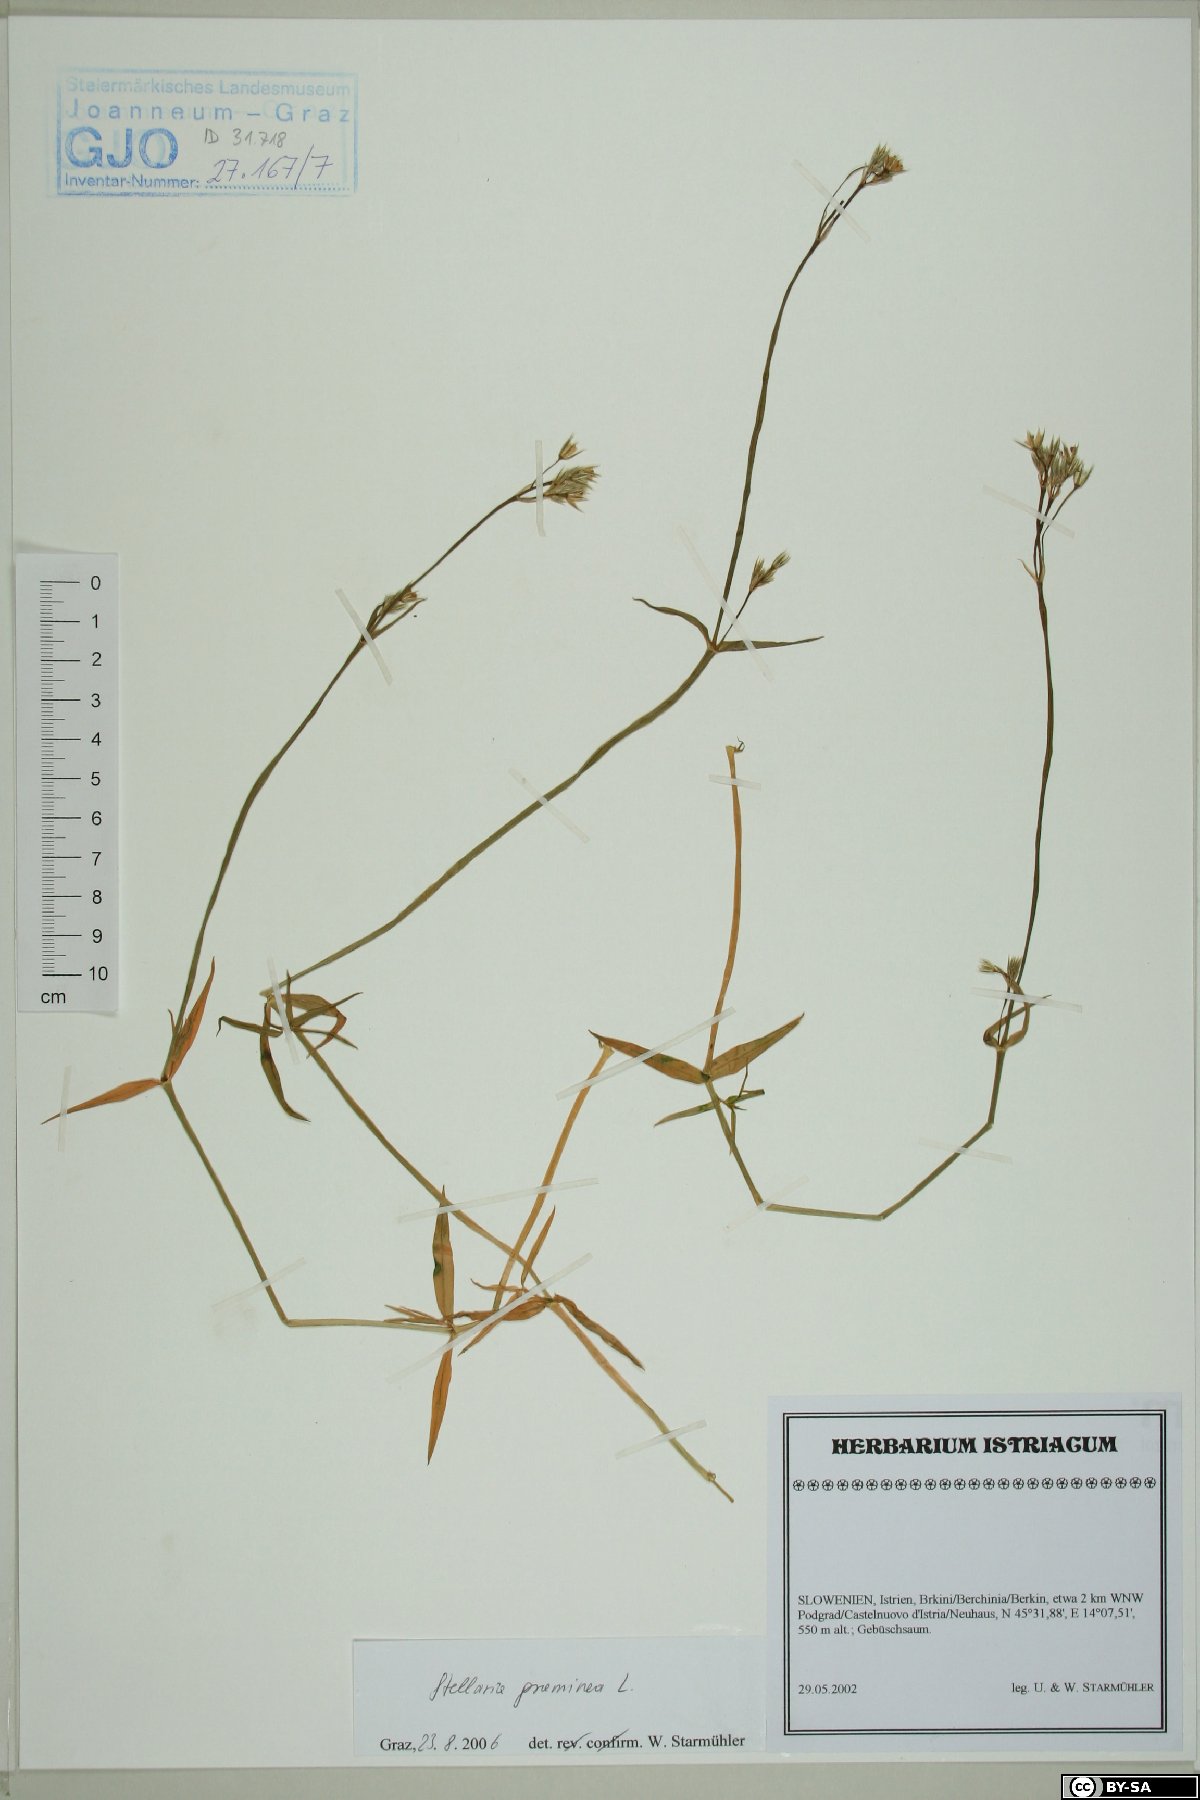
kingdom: Plantae
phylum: Tracheophyta
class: Magnoliopsida
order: Caryophyllales
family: Caryophyllaceae
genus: Stellaria
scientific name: Stellaria graminea
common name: Grass-like starwort
